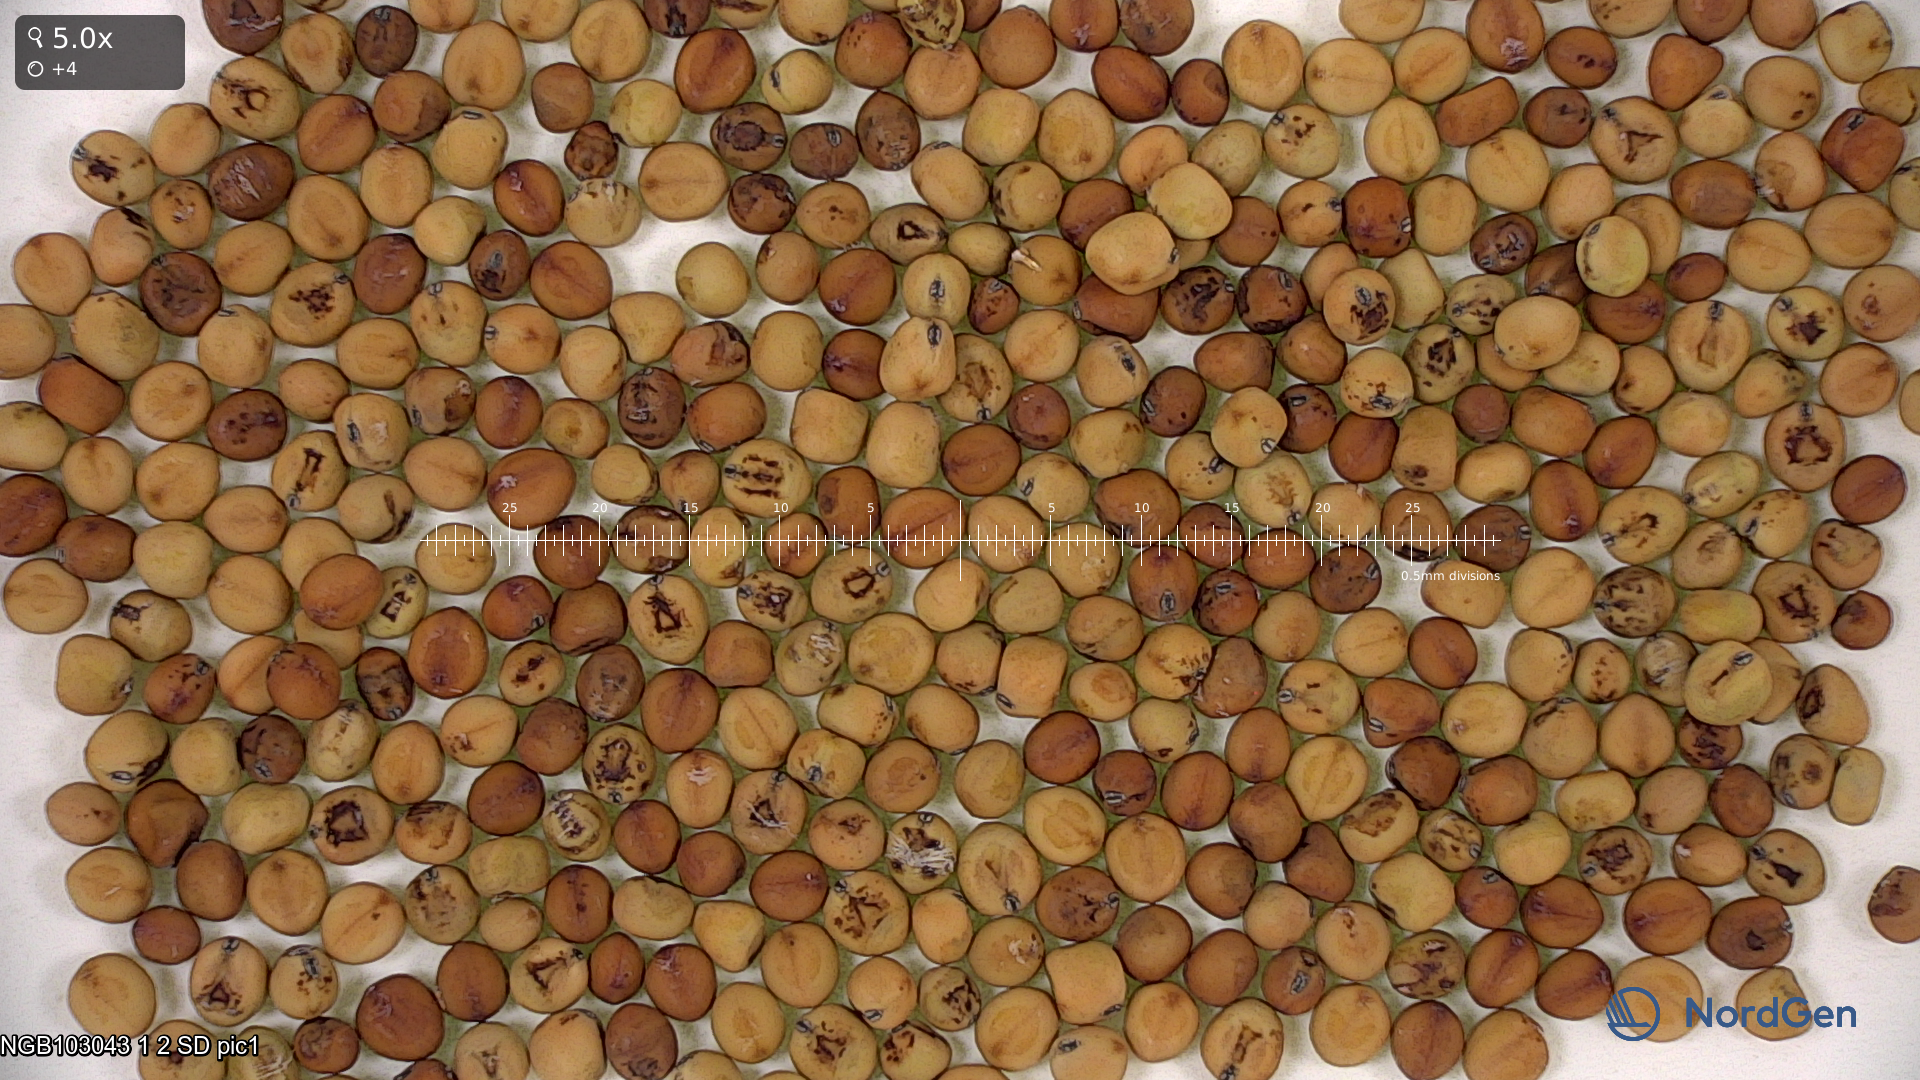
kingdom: Plantae
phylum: Tracheophyta
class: Magnoliopsida
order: Fabales
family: Fabaceae
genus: Lathyrus
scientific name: Lathyrus oleraceus
